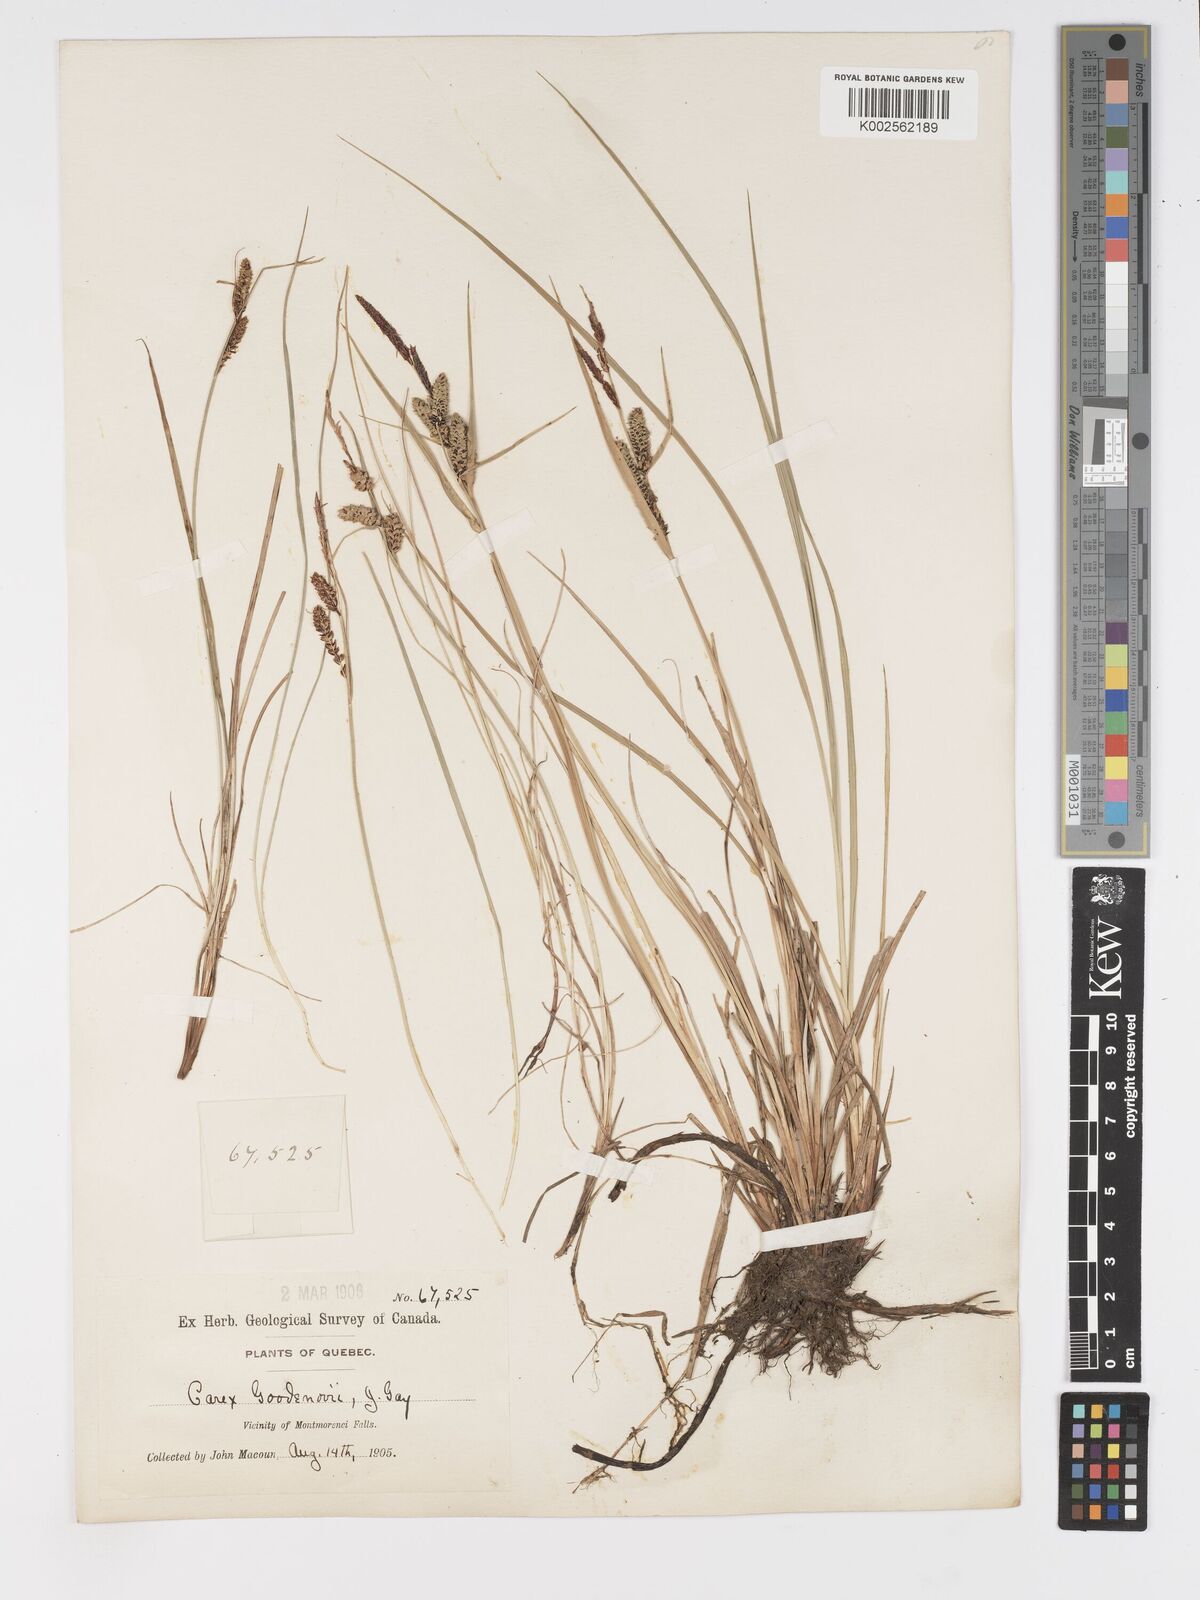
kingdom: Plantae
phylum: Tracheophyta
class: Liliopsida
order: Poales
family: Cyperaceae
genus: Carex
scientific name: Carex nigra
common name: Common sedge
